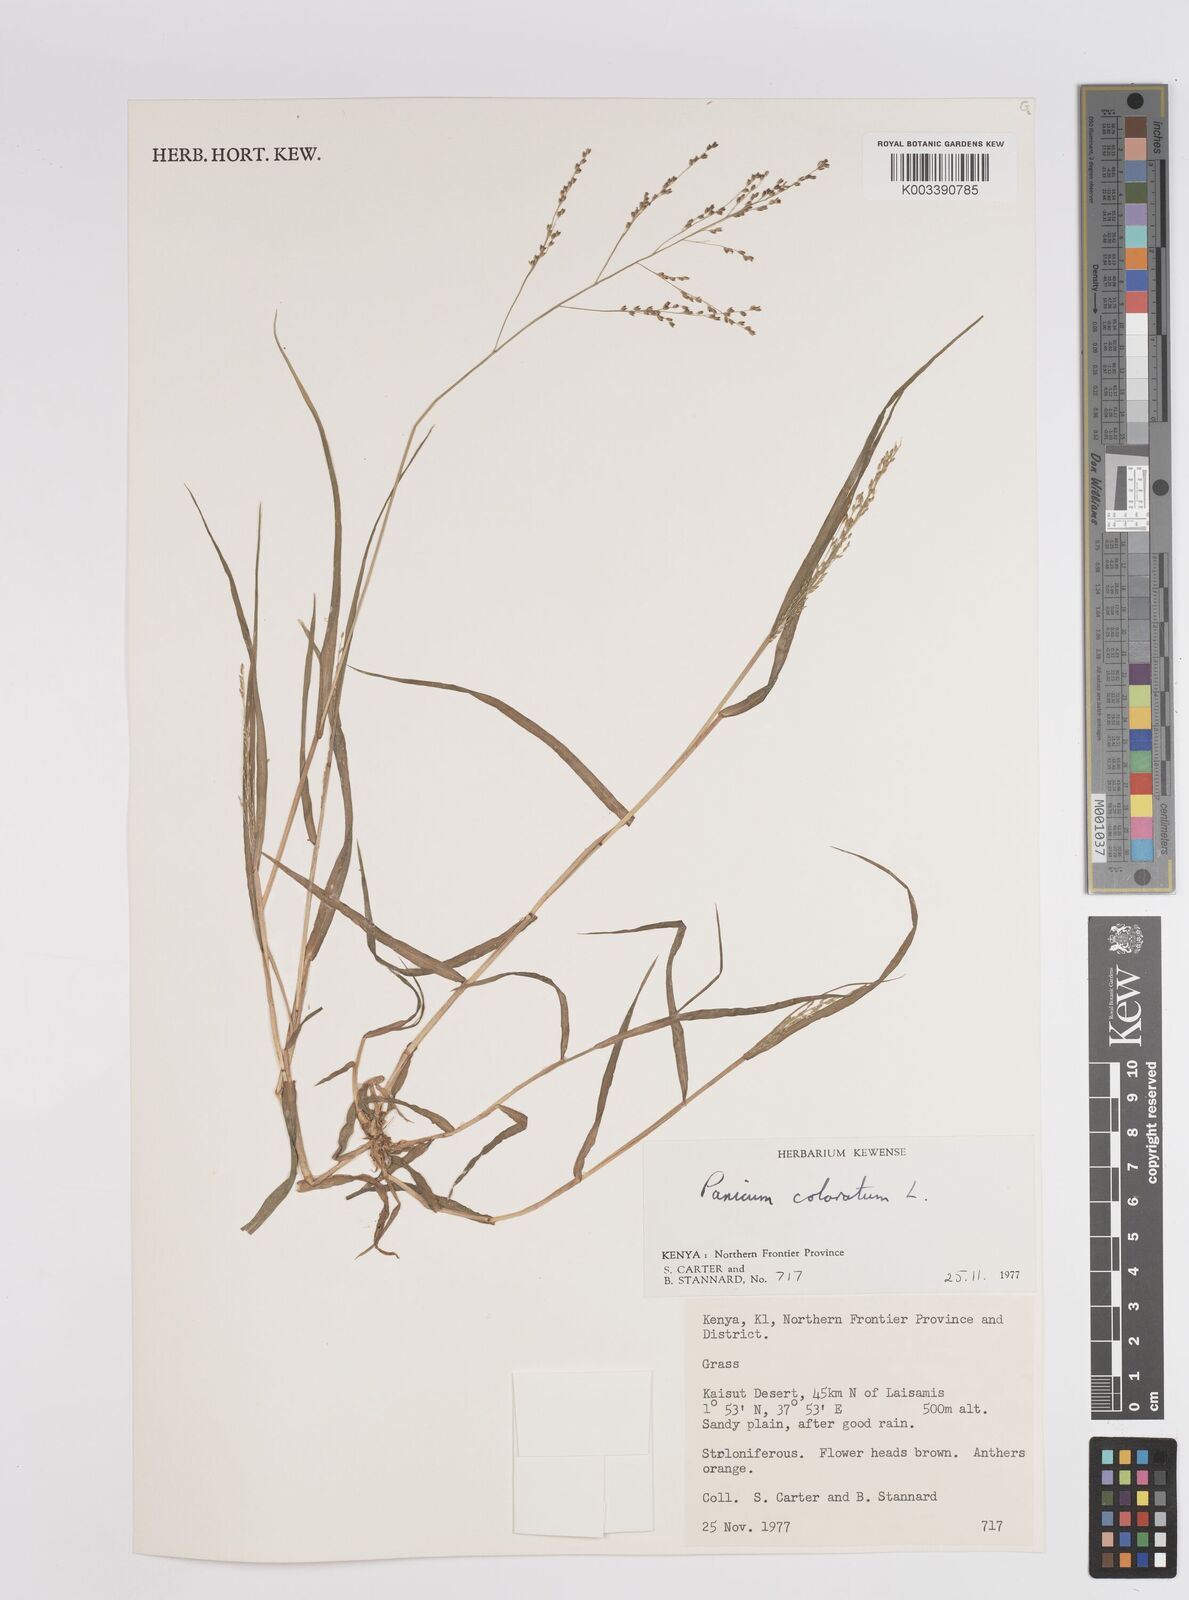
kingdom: Plantae
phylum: Tracheophyta
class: Liliopsida
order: Poales
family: Poaceae
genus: Panicum
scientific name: Panicum coloratum
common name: Kleingrass
